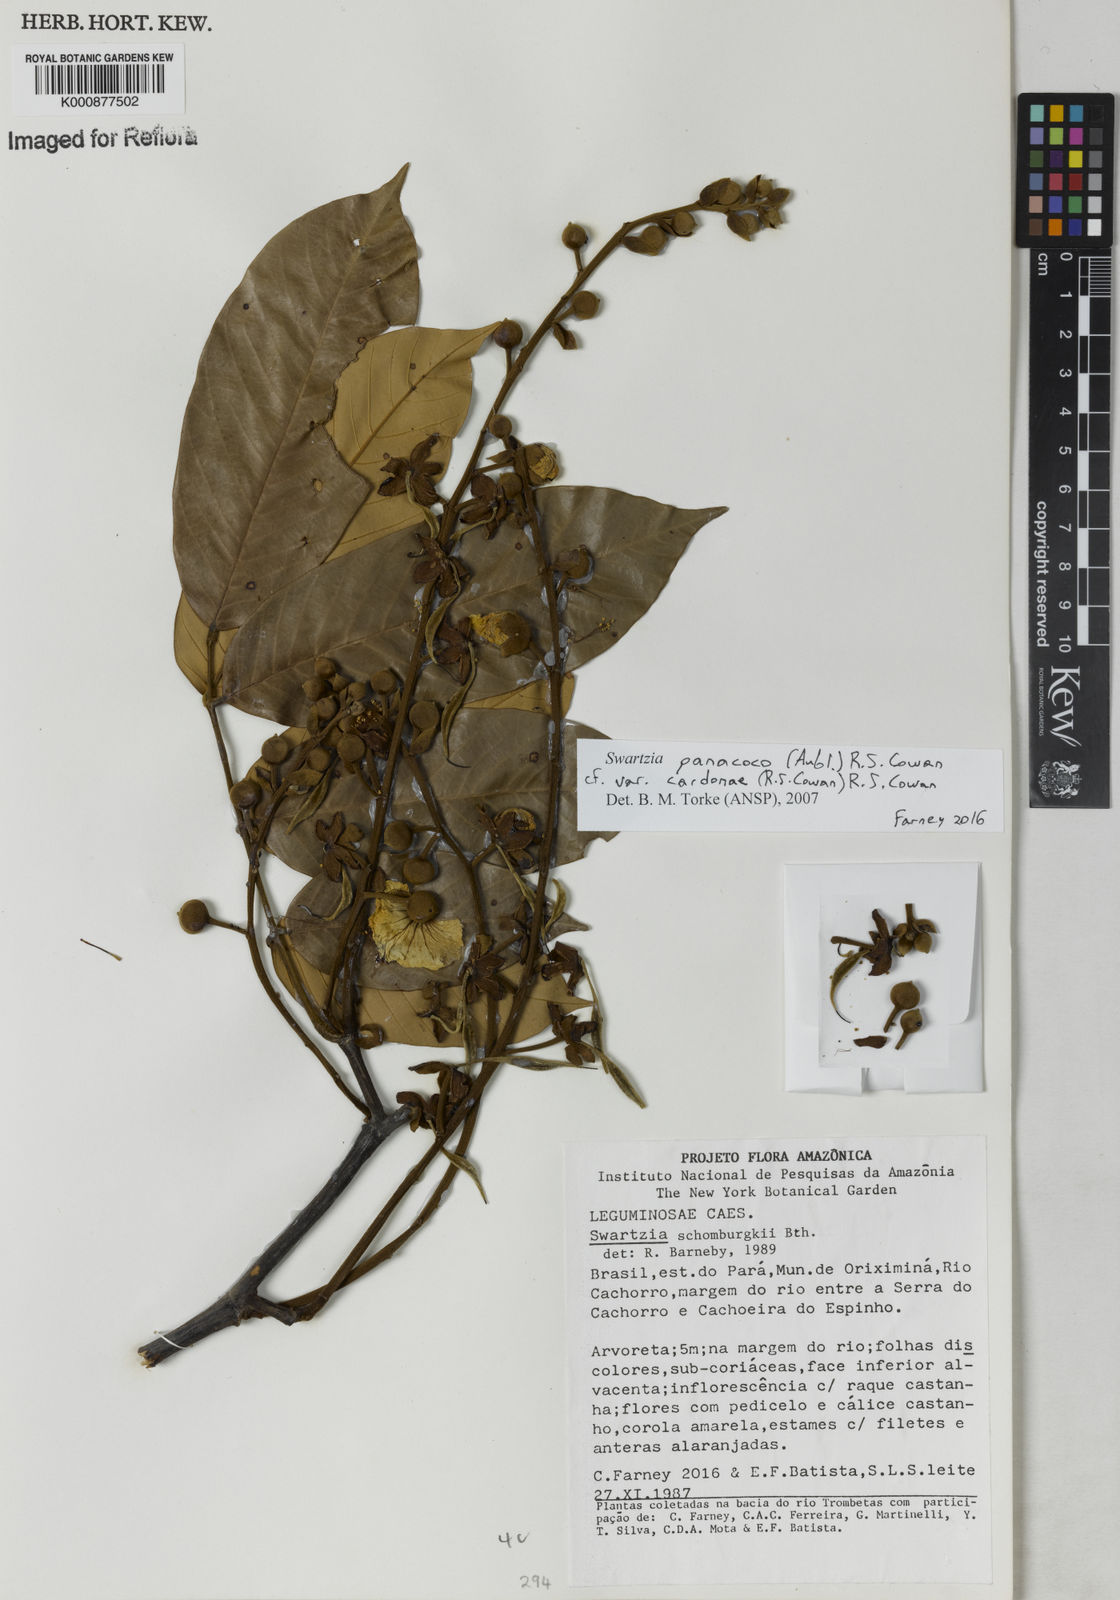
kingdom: Plantae
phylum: Tracheophyta
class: Magnoliopsida
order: Fabales
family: Fabaceae
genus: Swartzia
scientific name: Swartzia panacoco
